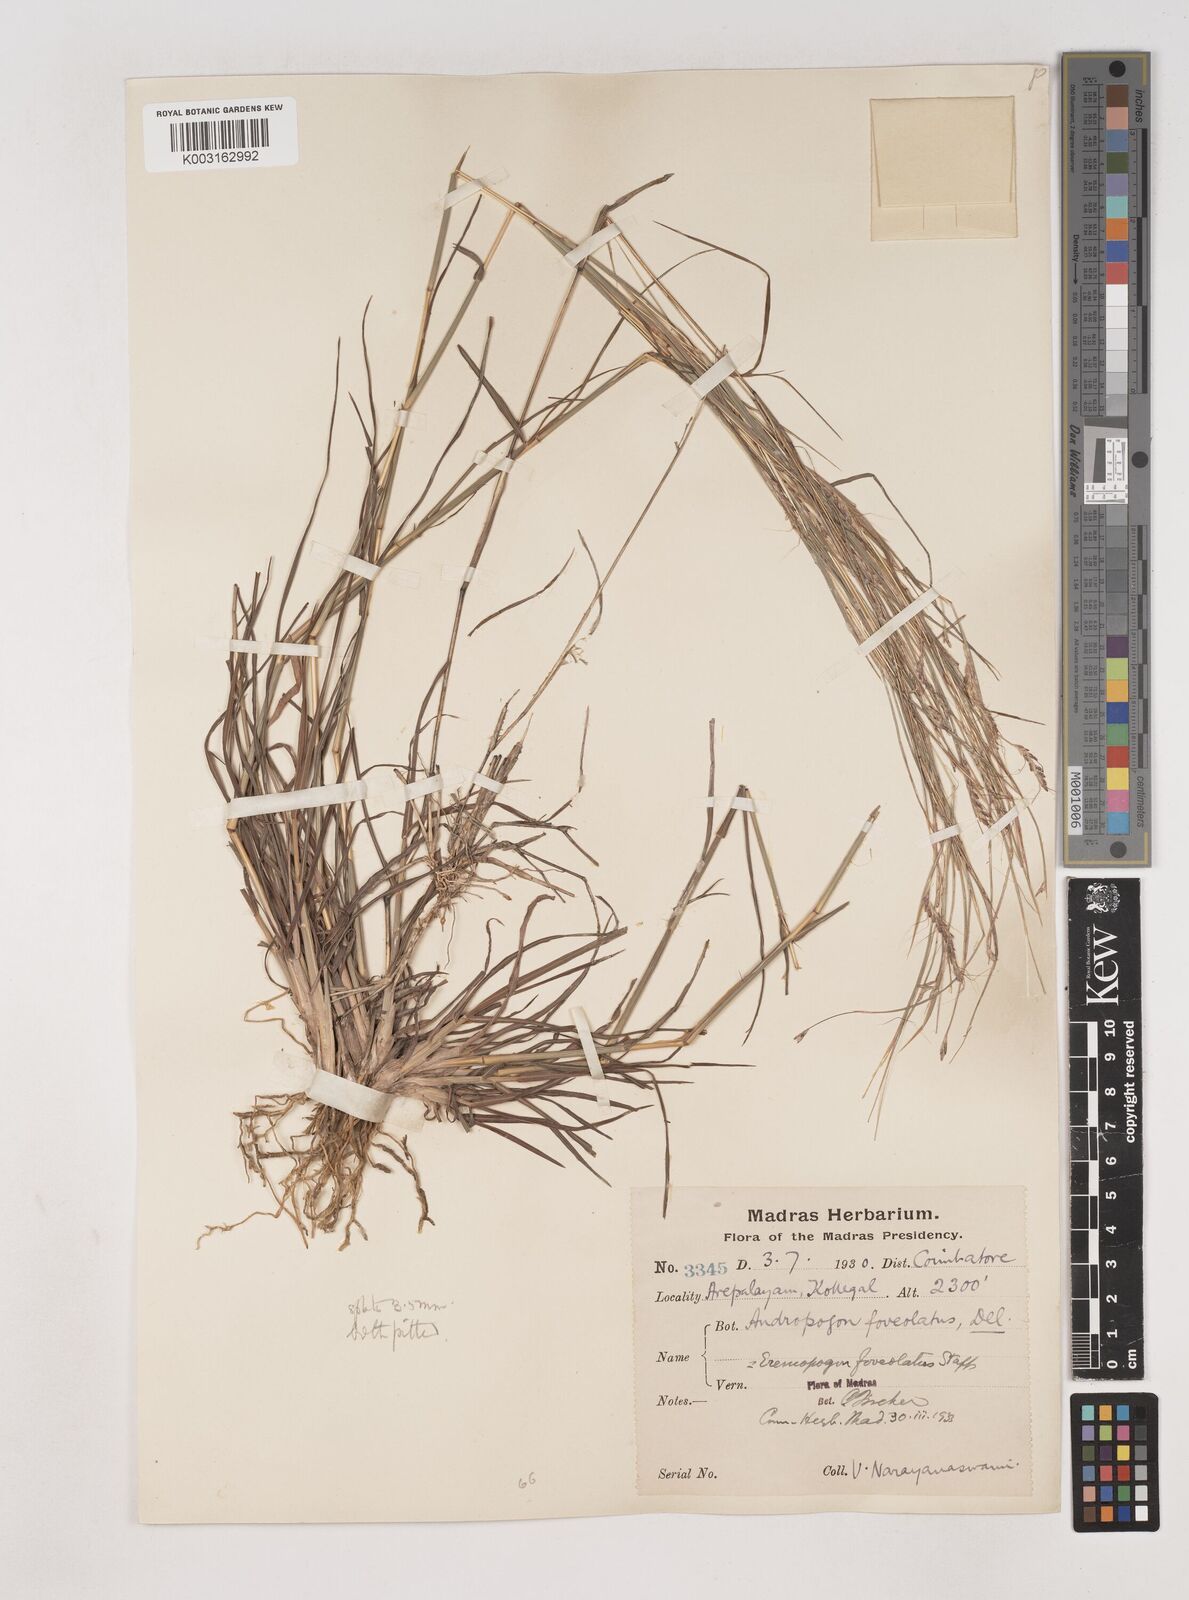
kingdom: Plantae
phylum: Tracheophyta
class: Liliopsida
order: Poales
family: Poaceae
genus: Dichanthium
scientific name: Dichanthium foveolatum
